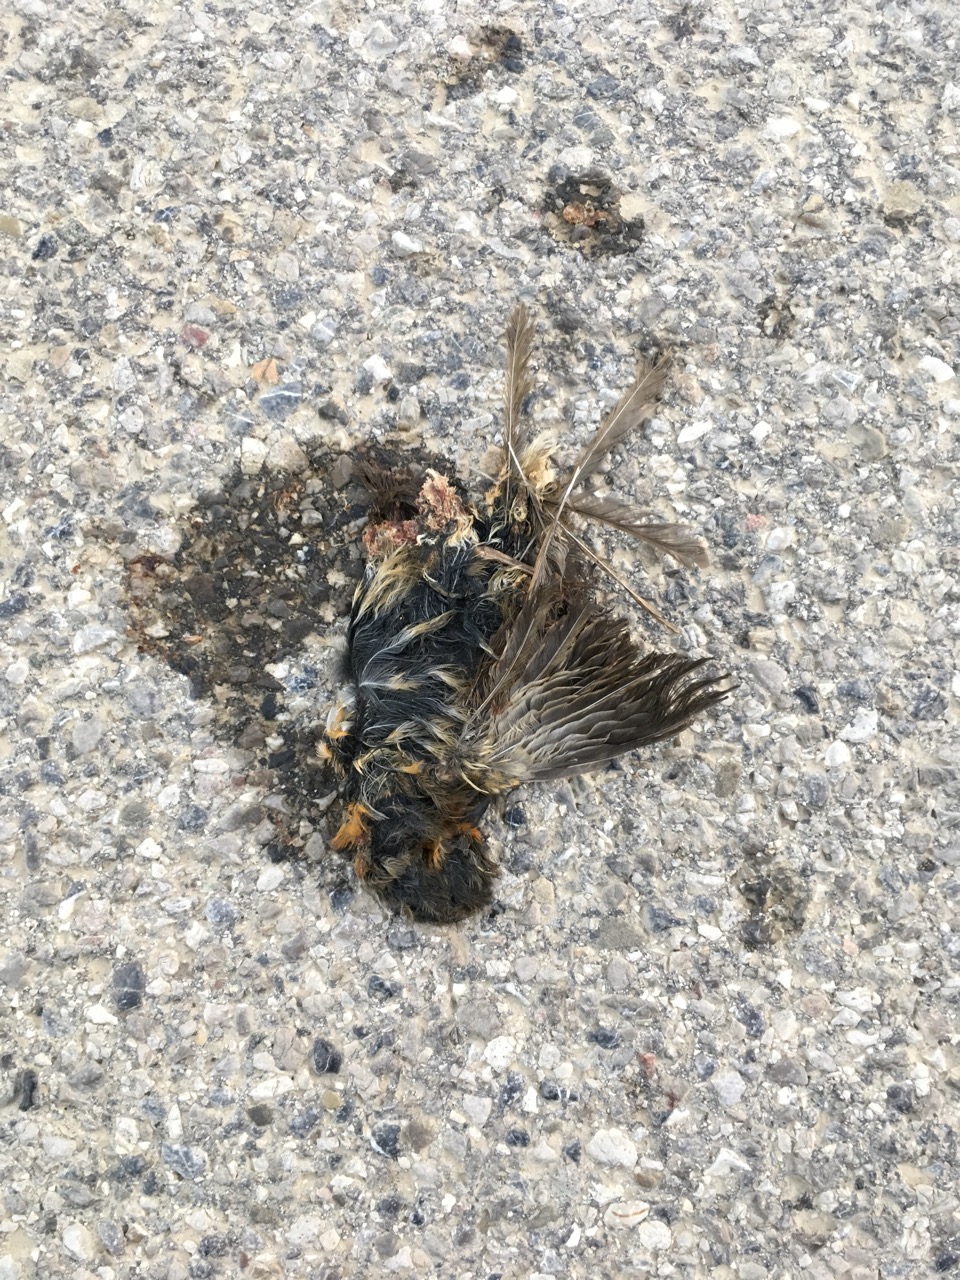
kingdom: Animalia
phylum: Chordata
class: Aves
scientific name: Aves
